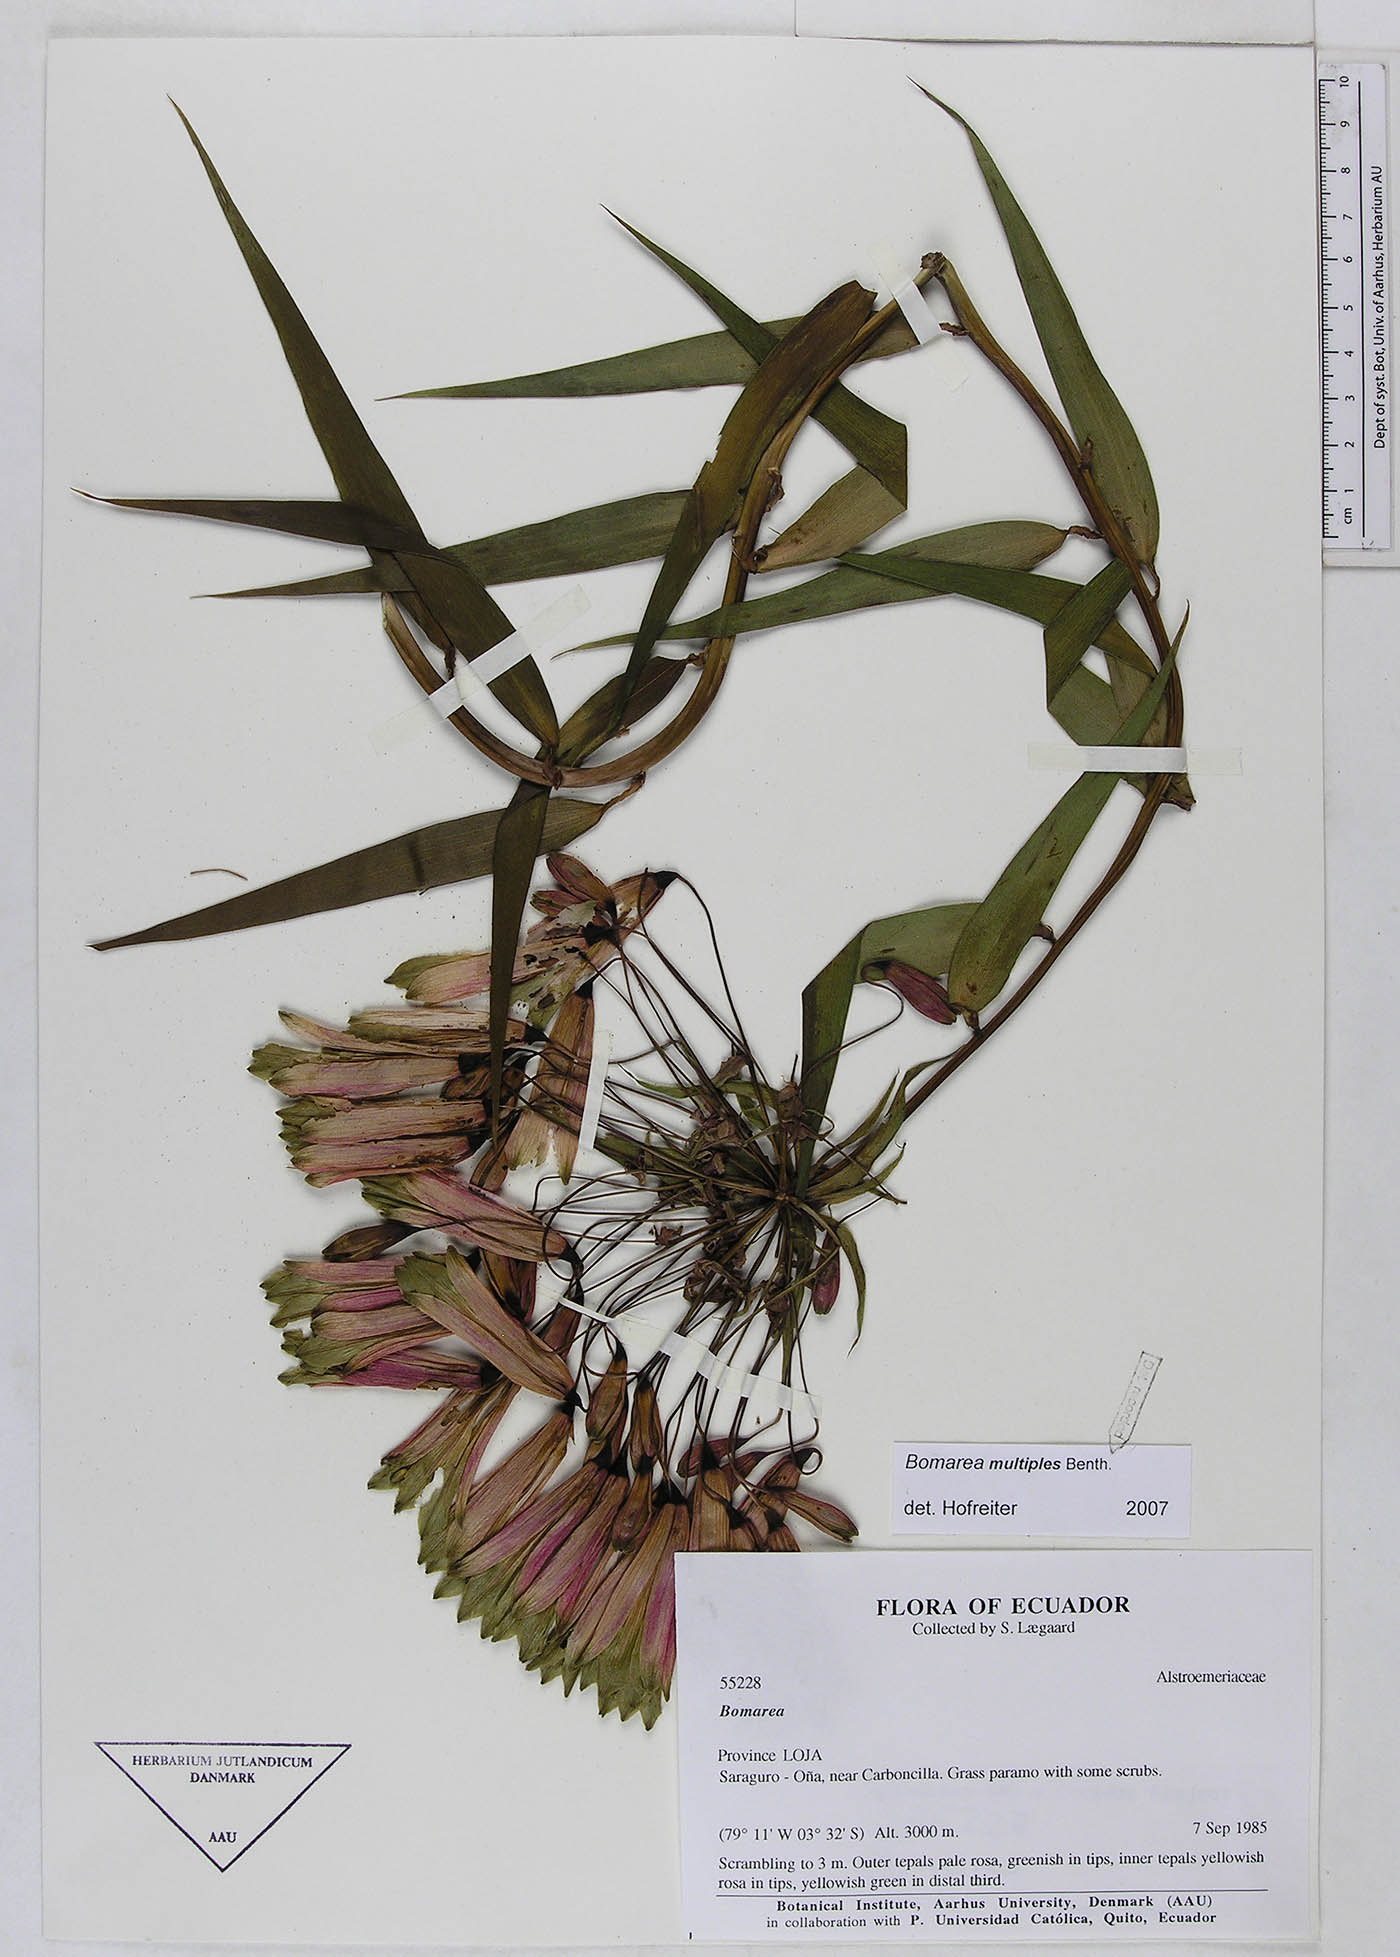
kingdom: Plantae
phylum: Tracheophyta
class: Liliopsida
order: Liliales
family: Alstroemeriaceae
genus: Bomarea
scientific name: Bomarea multipes
